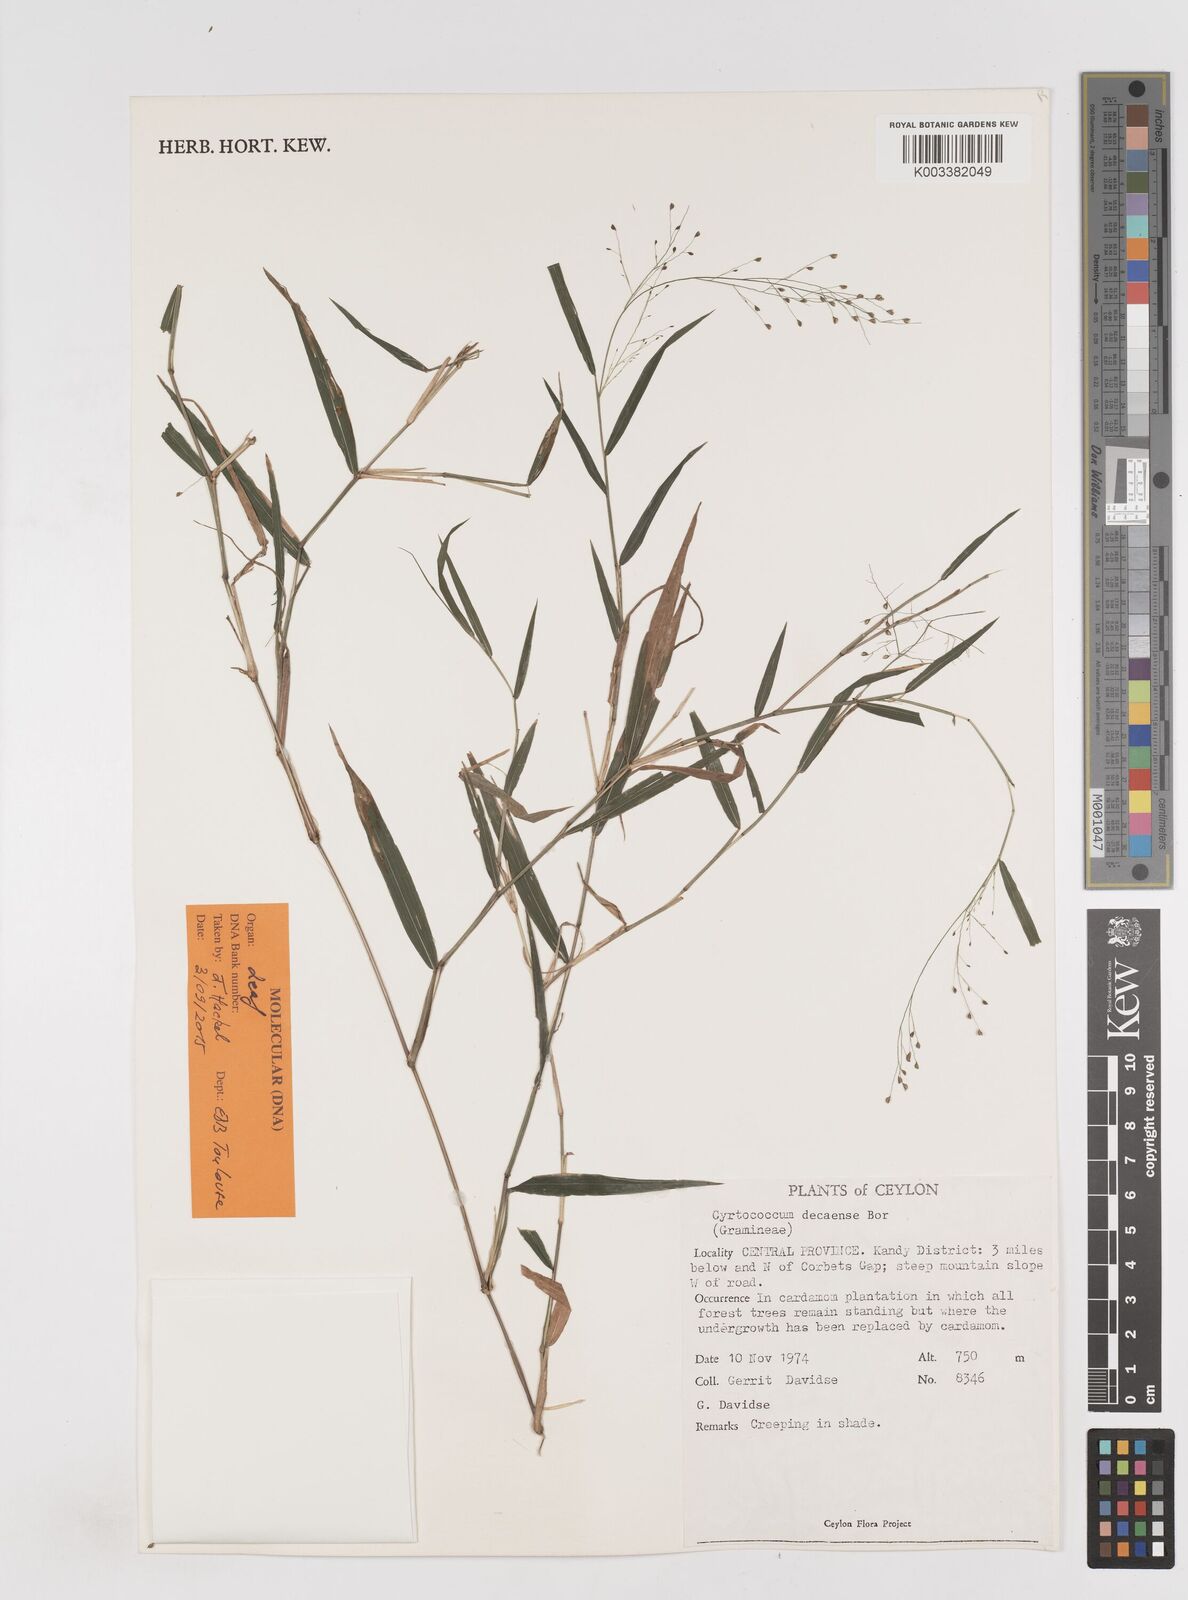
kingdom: Plantae
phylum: Tracheophyta
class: Liliopsida
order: Poales
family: Poaceae
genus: Cyrtococcum
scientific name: Cyrtococcum deccanense
